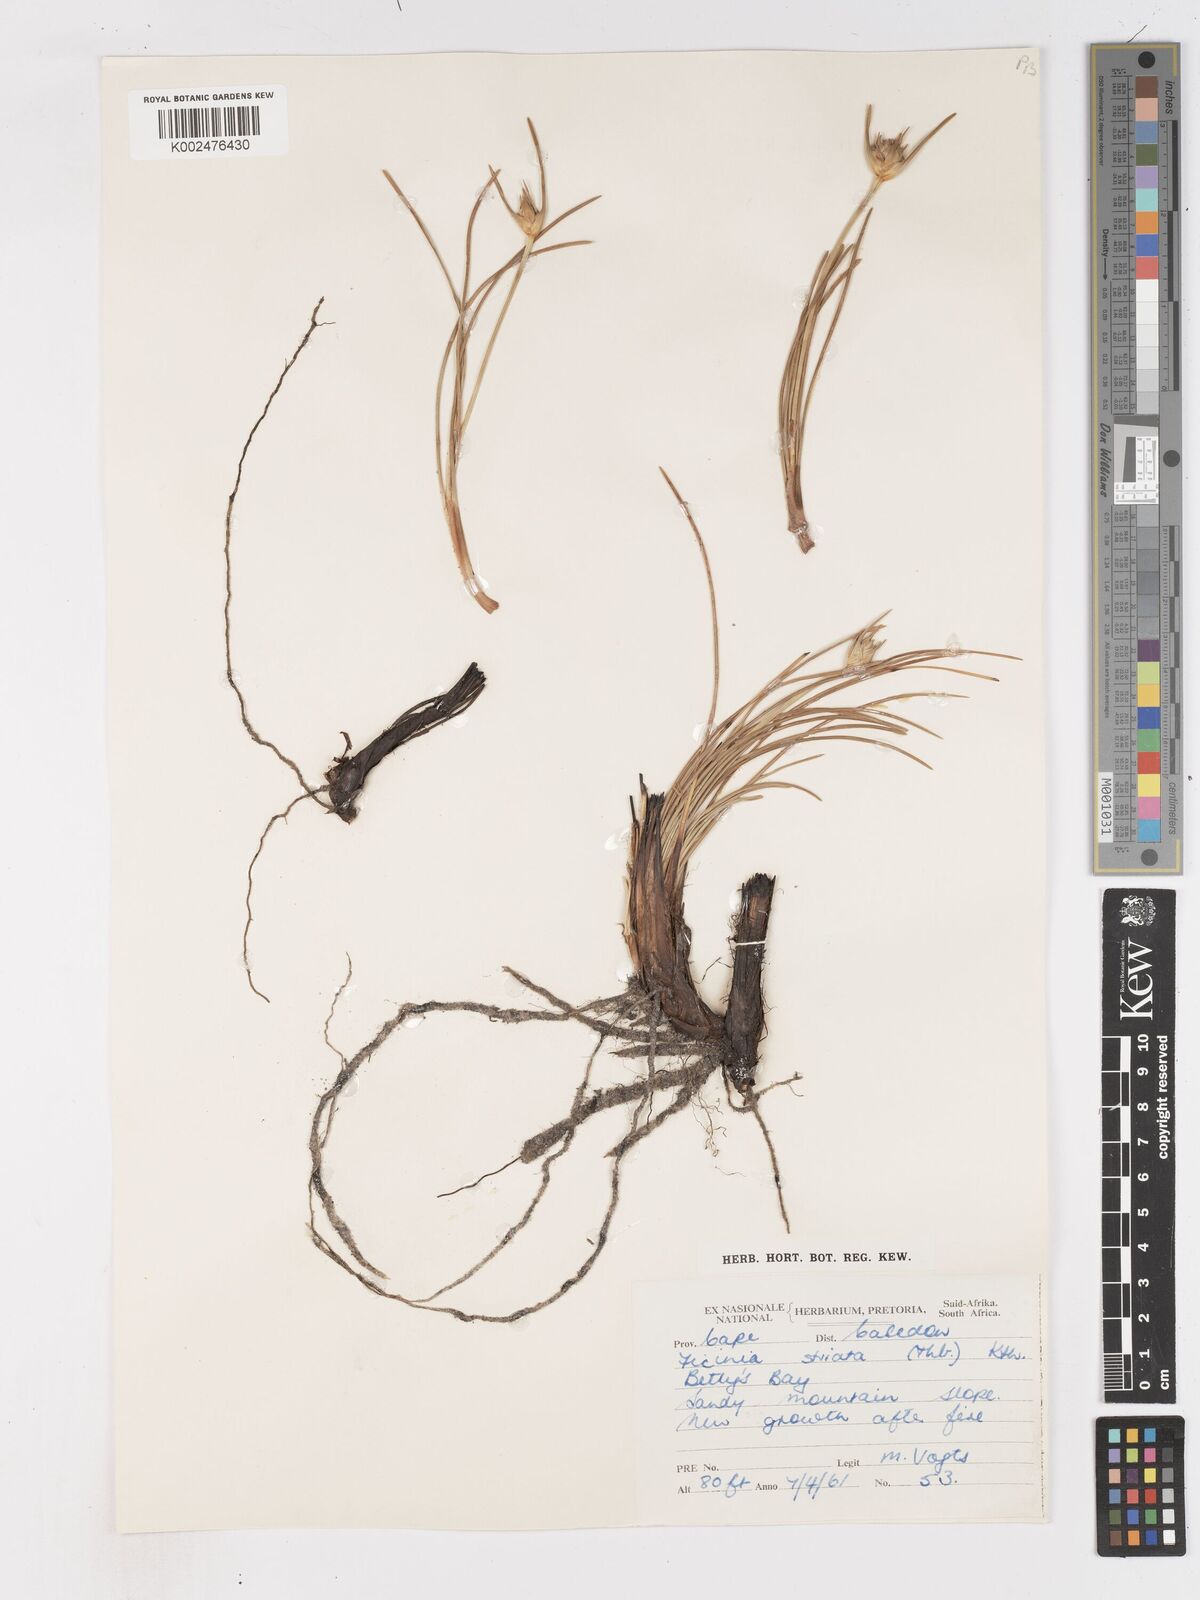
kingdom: Plantae
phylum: Tracheophyta
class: Liliopsida
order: Poales
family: Cyperaceae
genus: Ficinia
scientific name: Ficinia pallens
